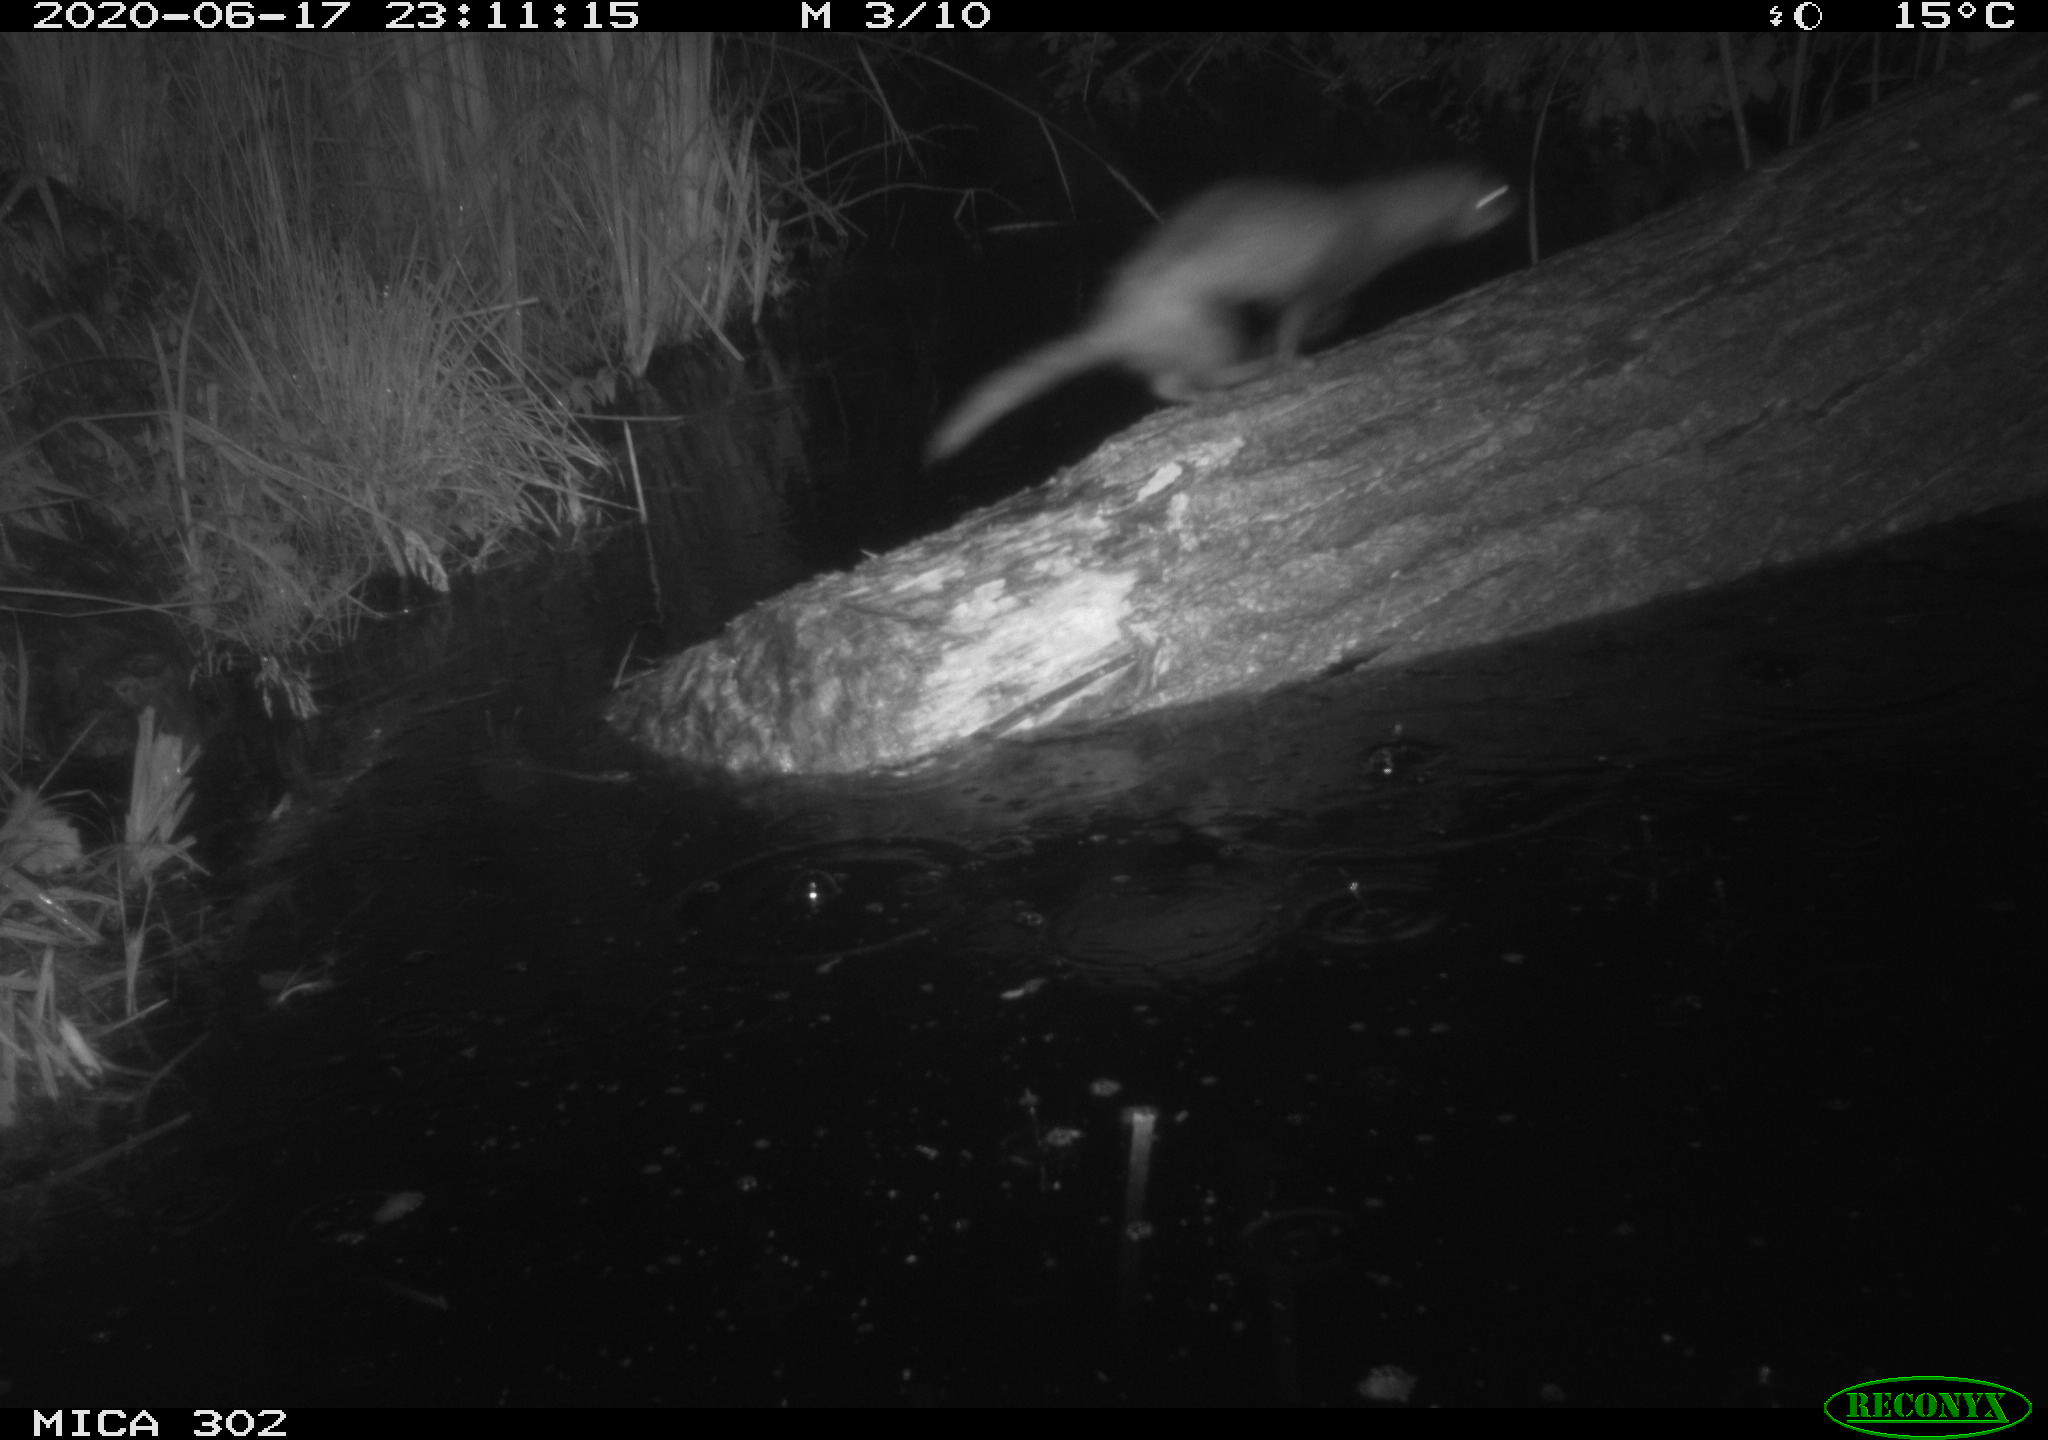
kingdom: Animalia
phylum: Chordata
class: Mammalia
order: Carnivora
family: Mustelidae
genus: Mustela
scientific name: Mustela putorius
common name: European polecat
